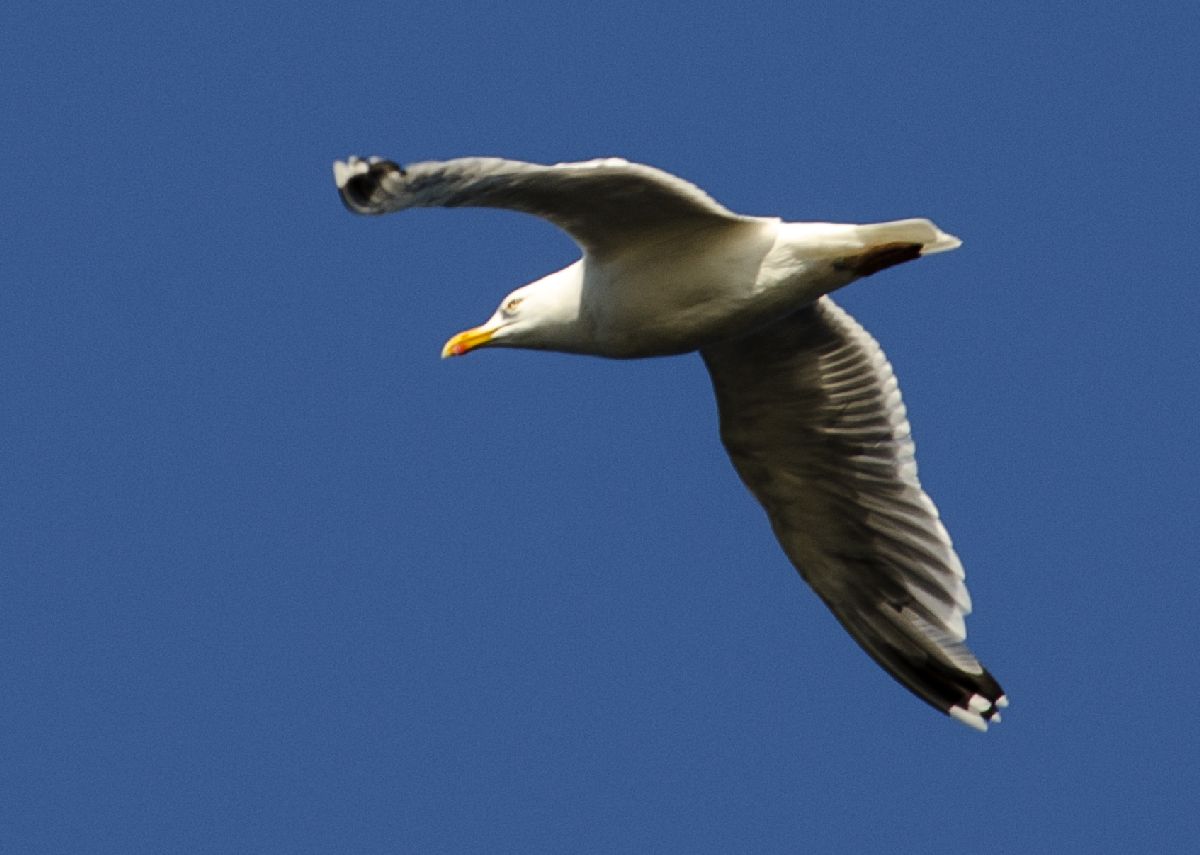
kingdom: Animalia
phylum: Chordata
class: Aves
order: Charadriiformes
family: Laridae
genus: Larus
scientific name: Larus argentatus
